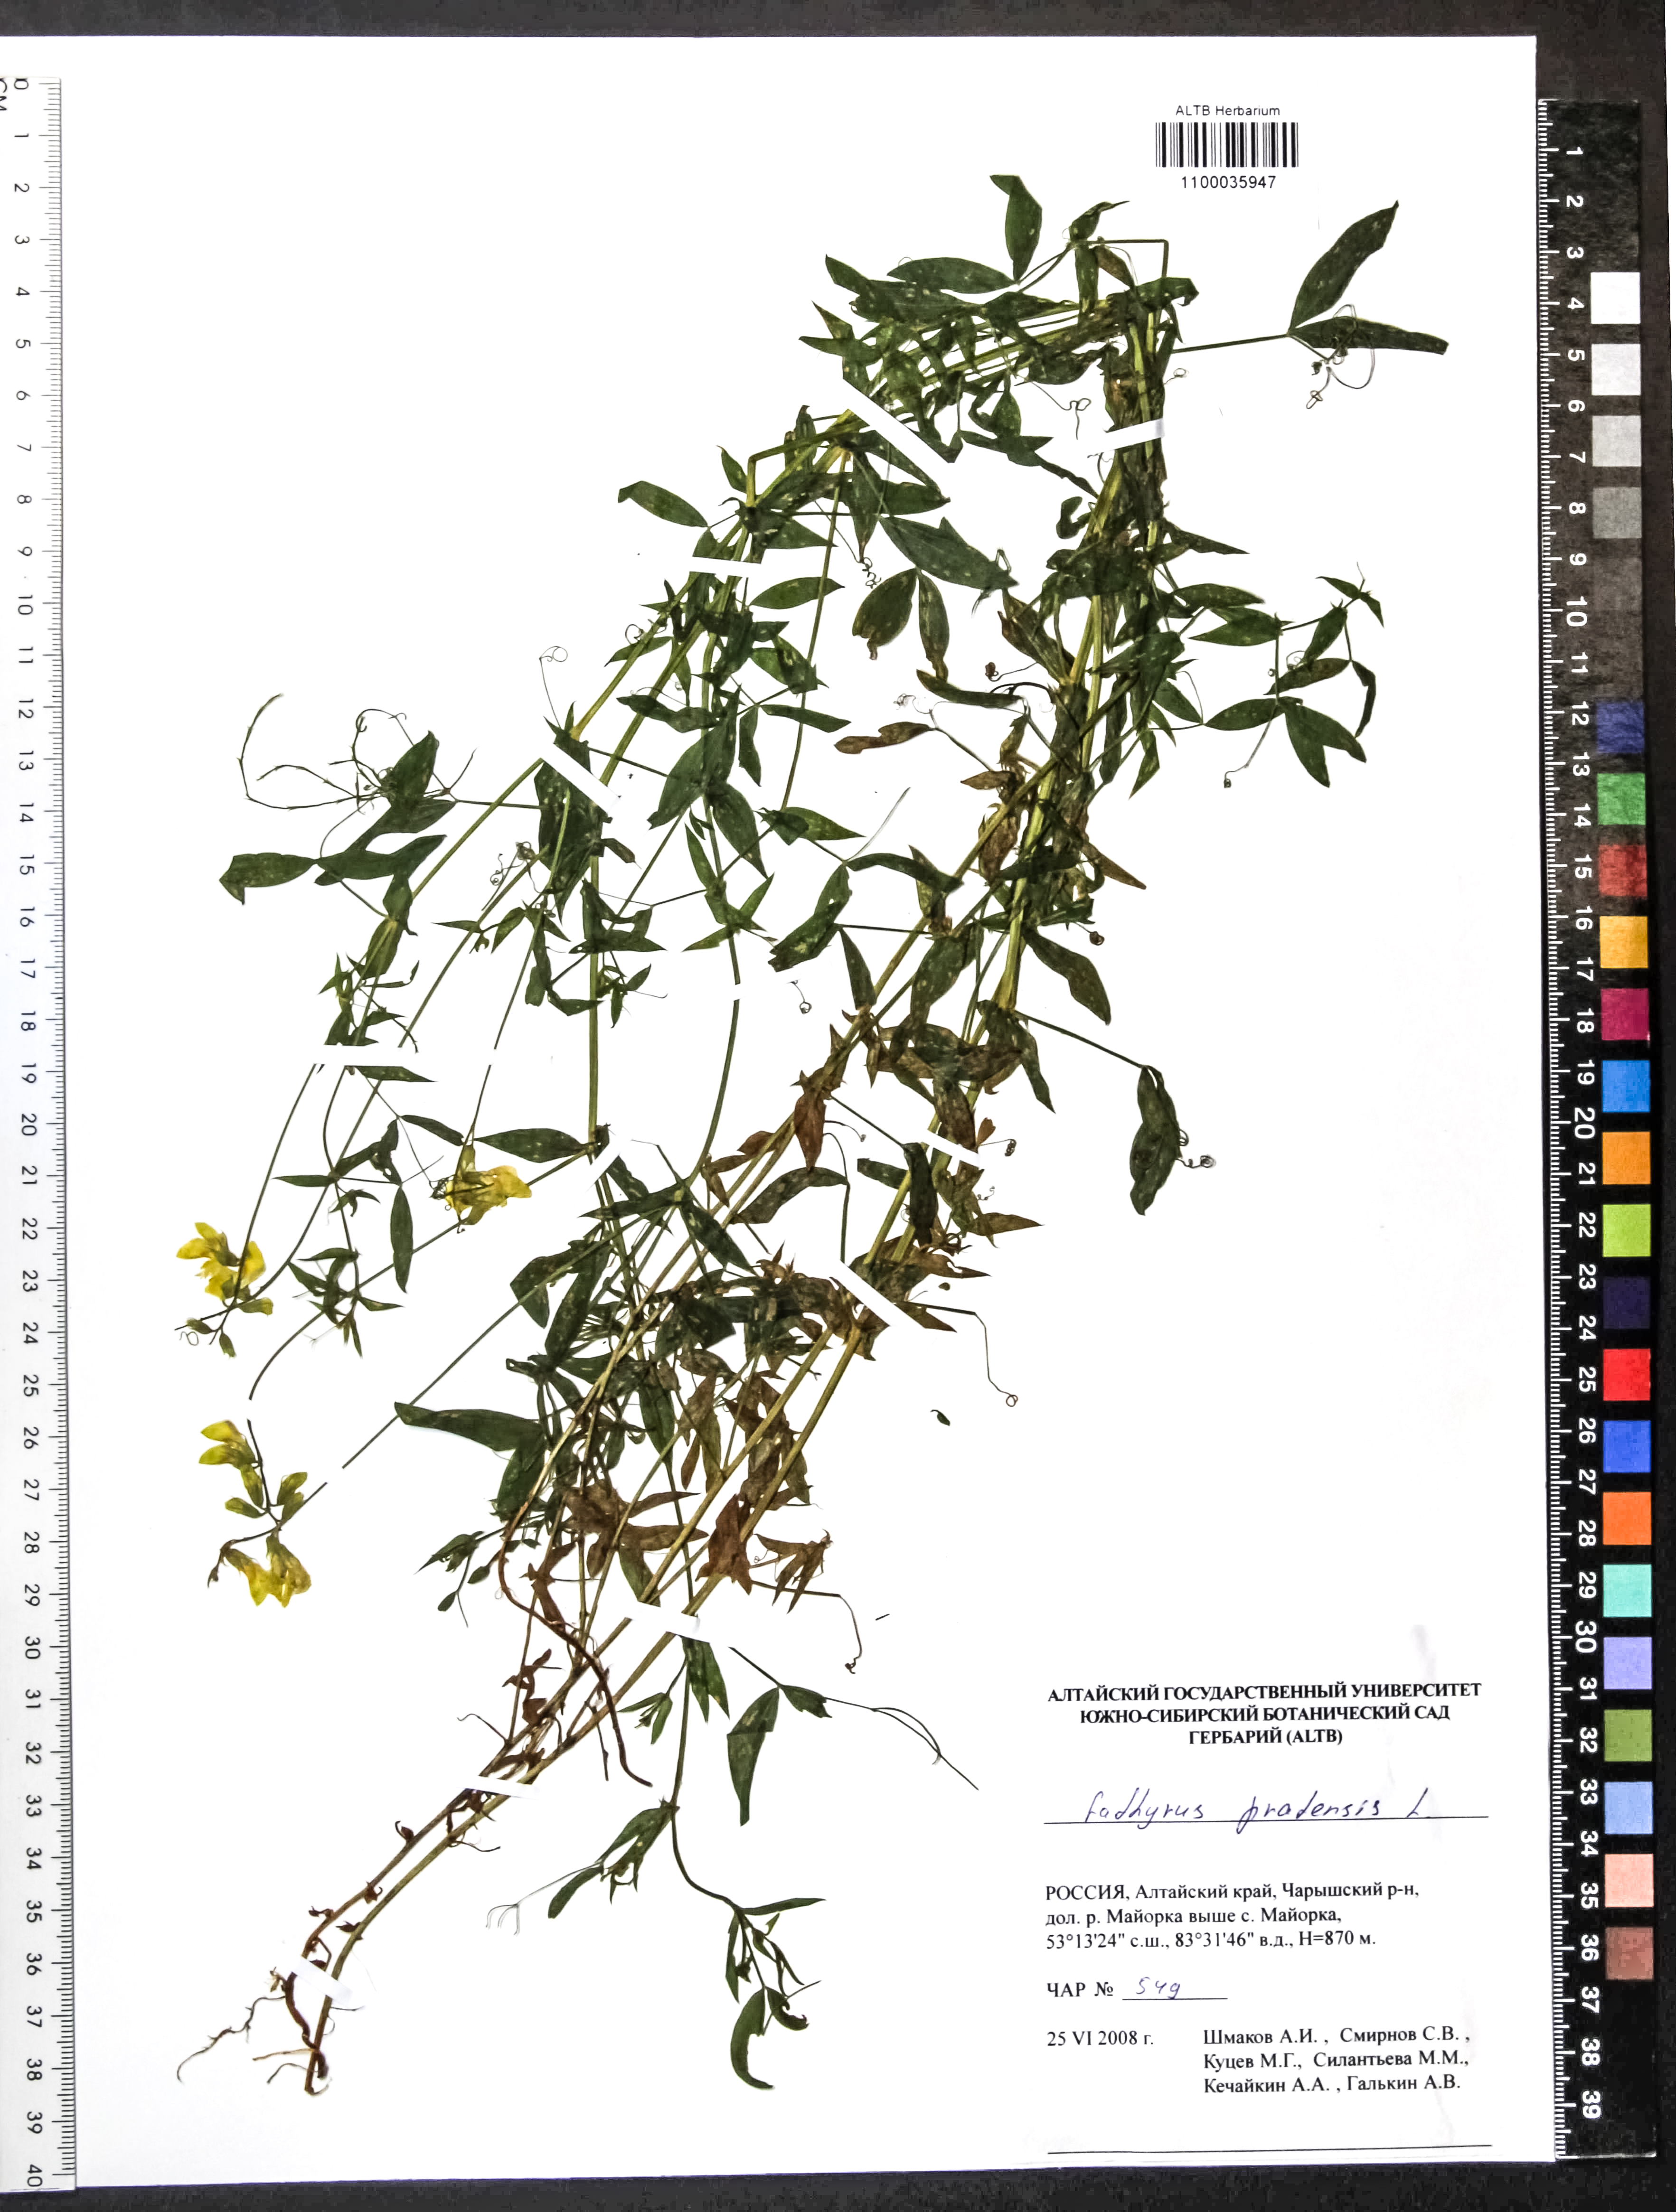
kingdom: Plantae
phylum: Tracheophyta
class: Magnoliopsida
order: Fabales
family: Fabaceae
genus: Lathyrus
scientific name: Lathyrus pratensis
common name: Meadow vetchling
